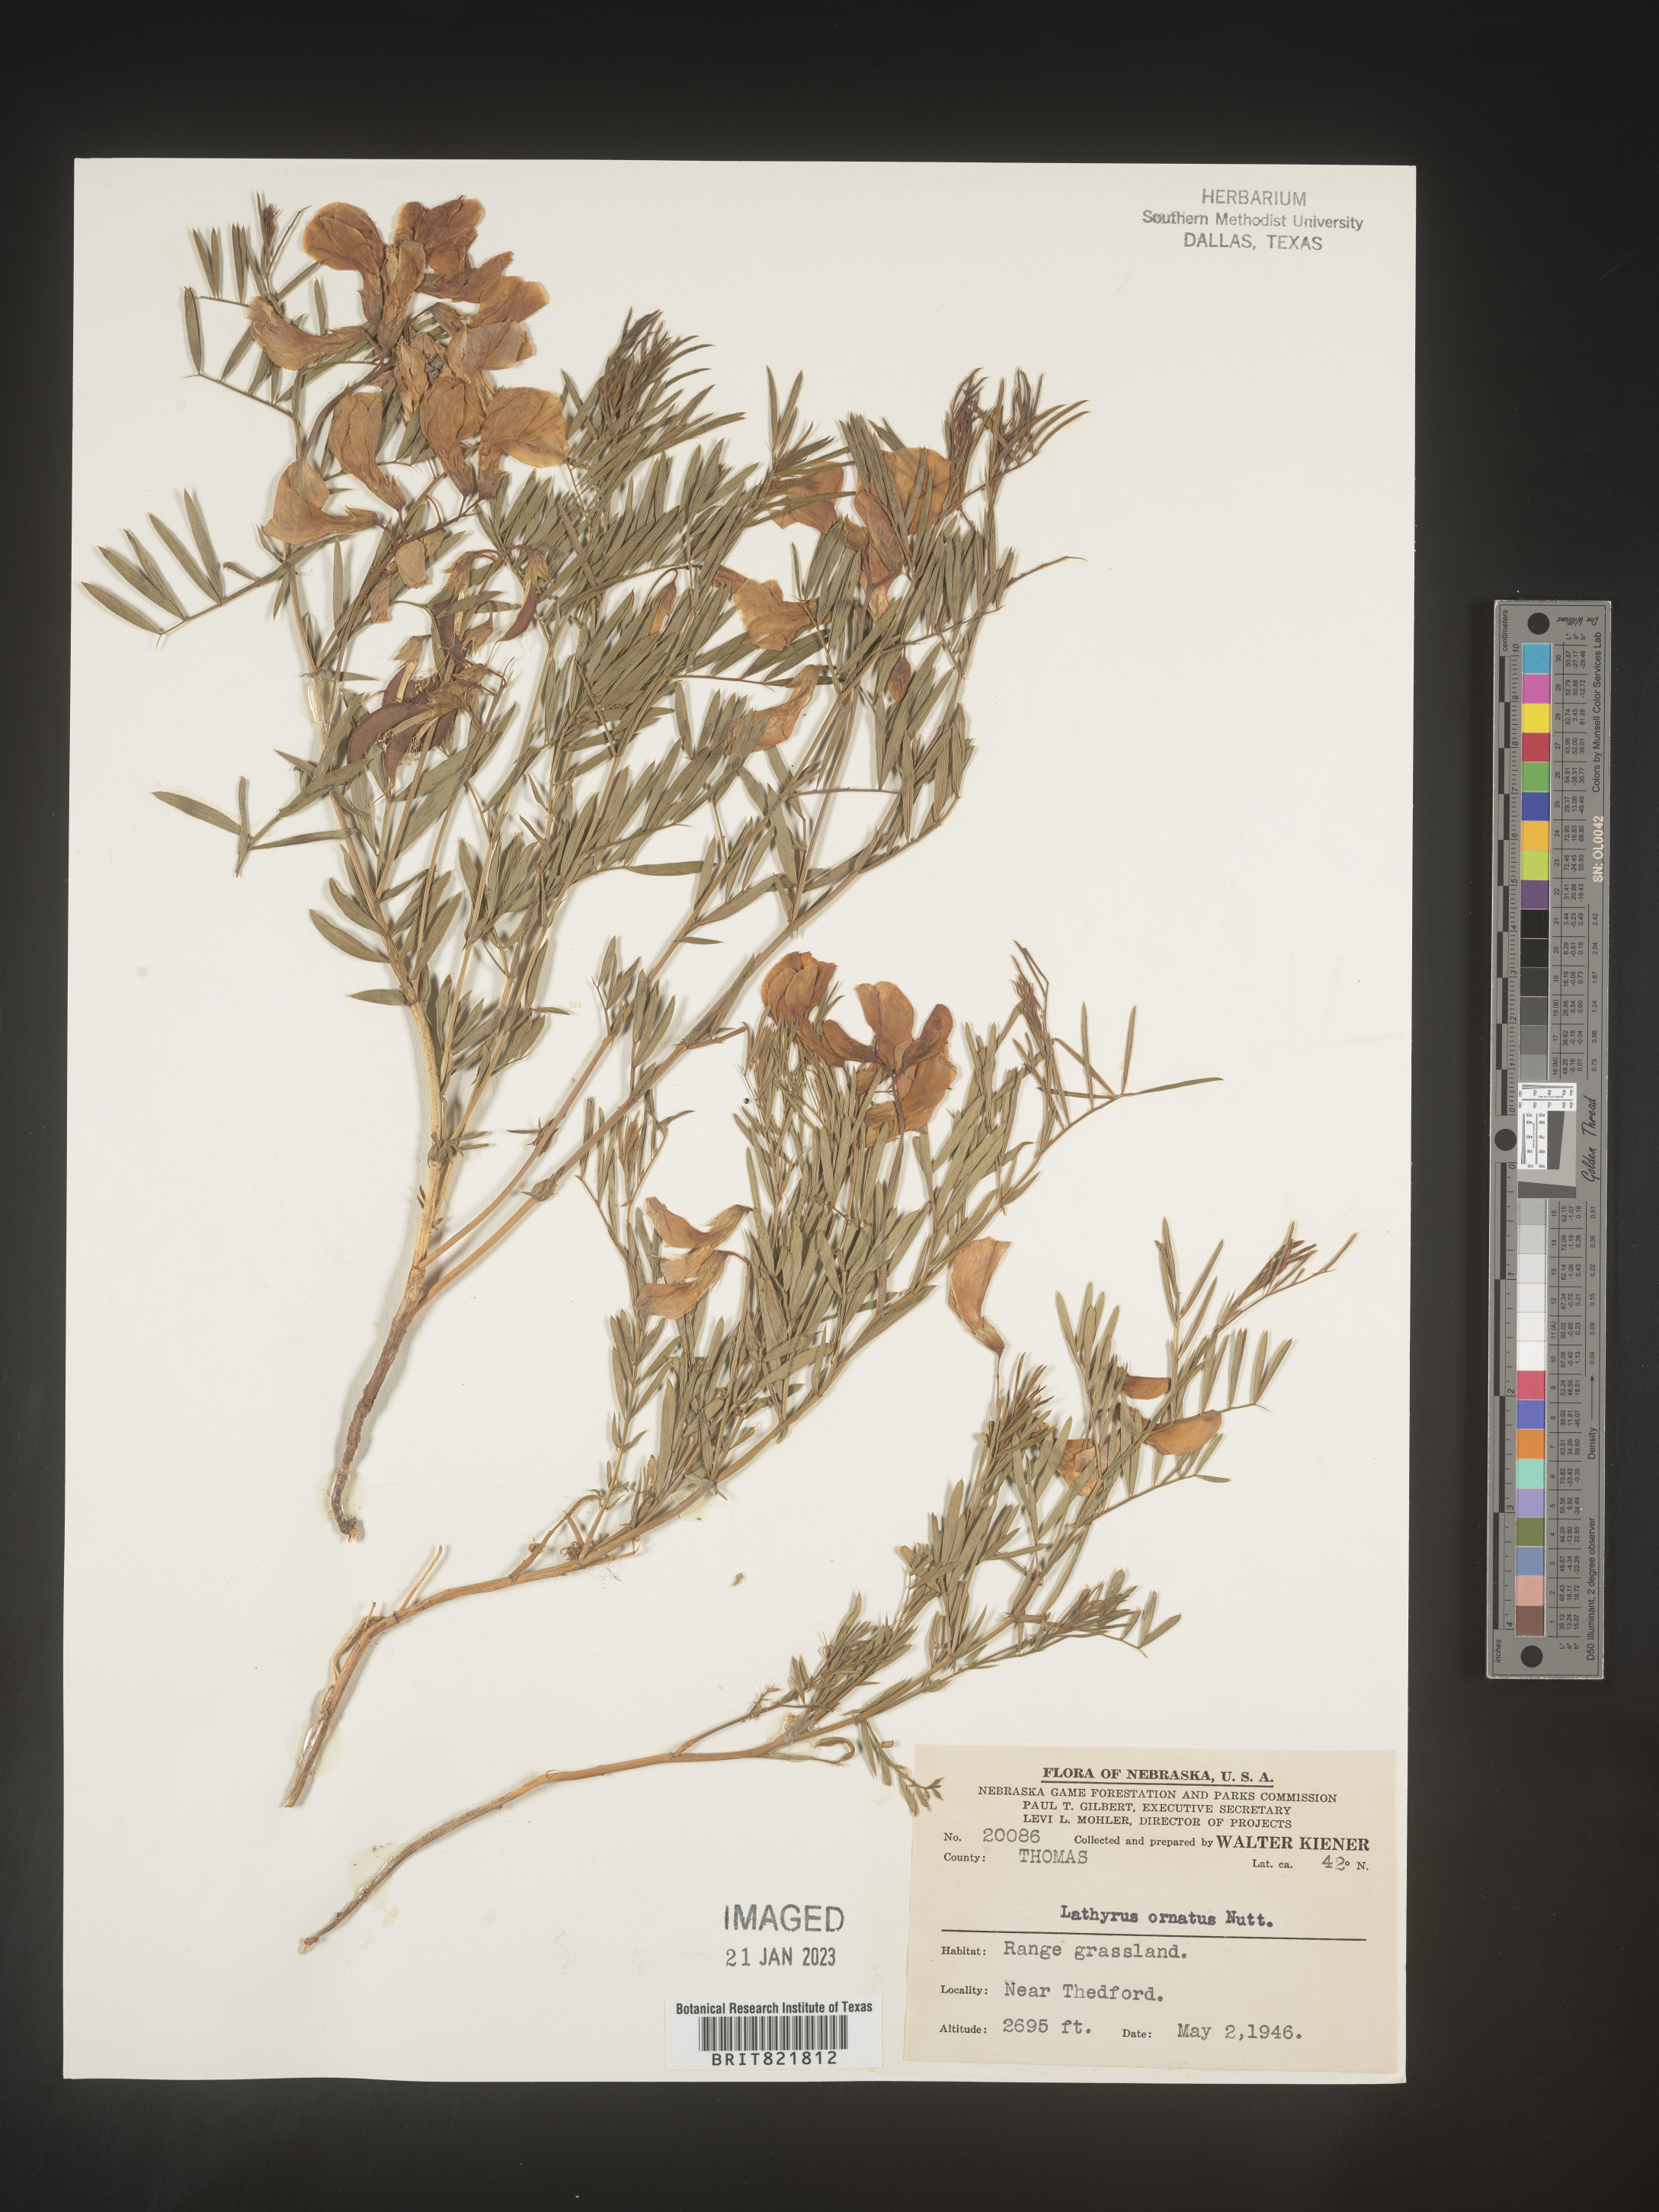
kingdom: Plantae
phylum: Tracheophyta
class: Magnoliopsida
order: Fabales
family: Fabaceae
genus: Lathyrus
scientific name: Lathyrus
